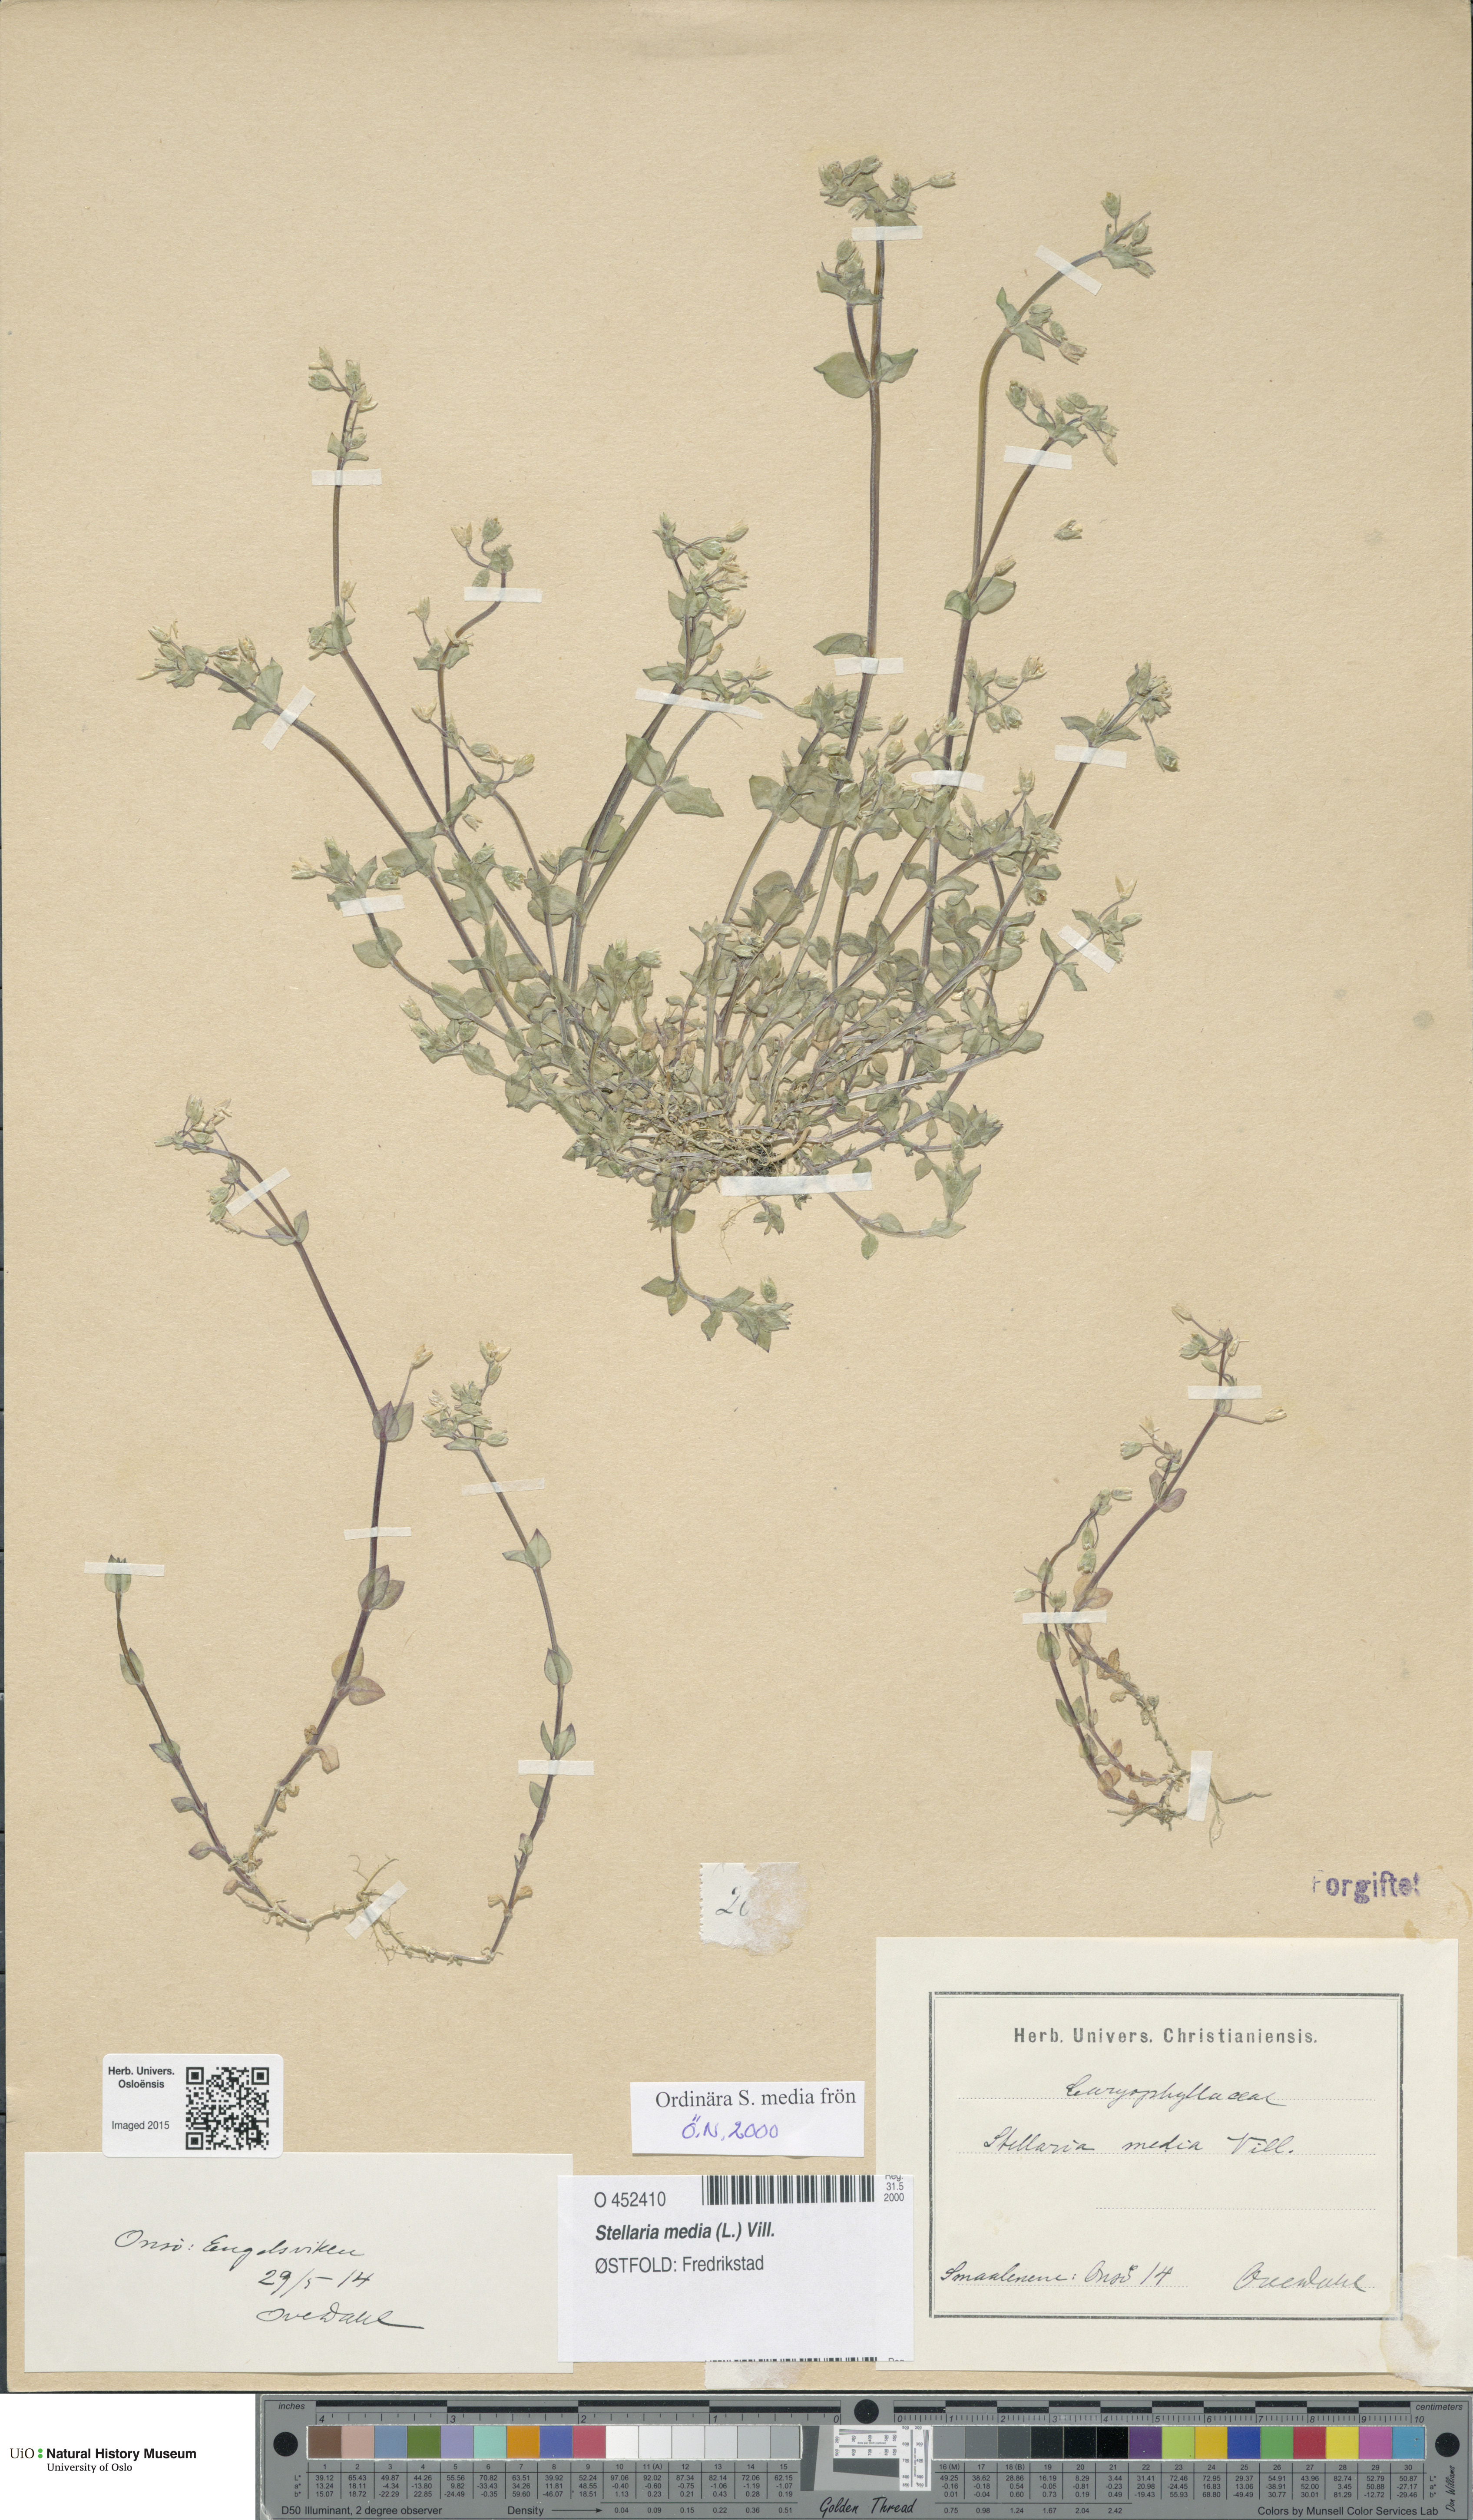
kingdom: Plantae
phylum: Tracheophyta
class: Magnoliopsida
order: Caryophyllales
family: Caryophyllaceae
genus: Stellaria
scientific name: Stellaria media
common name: Common chickweed
